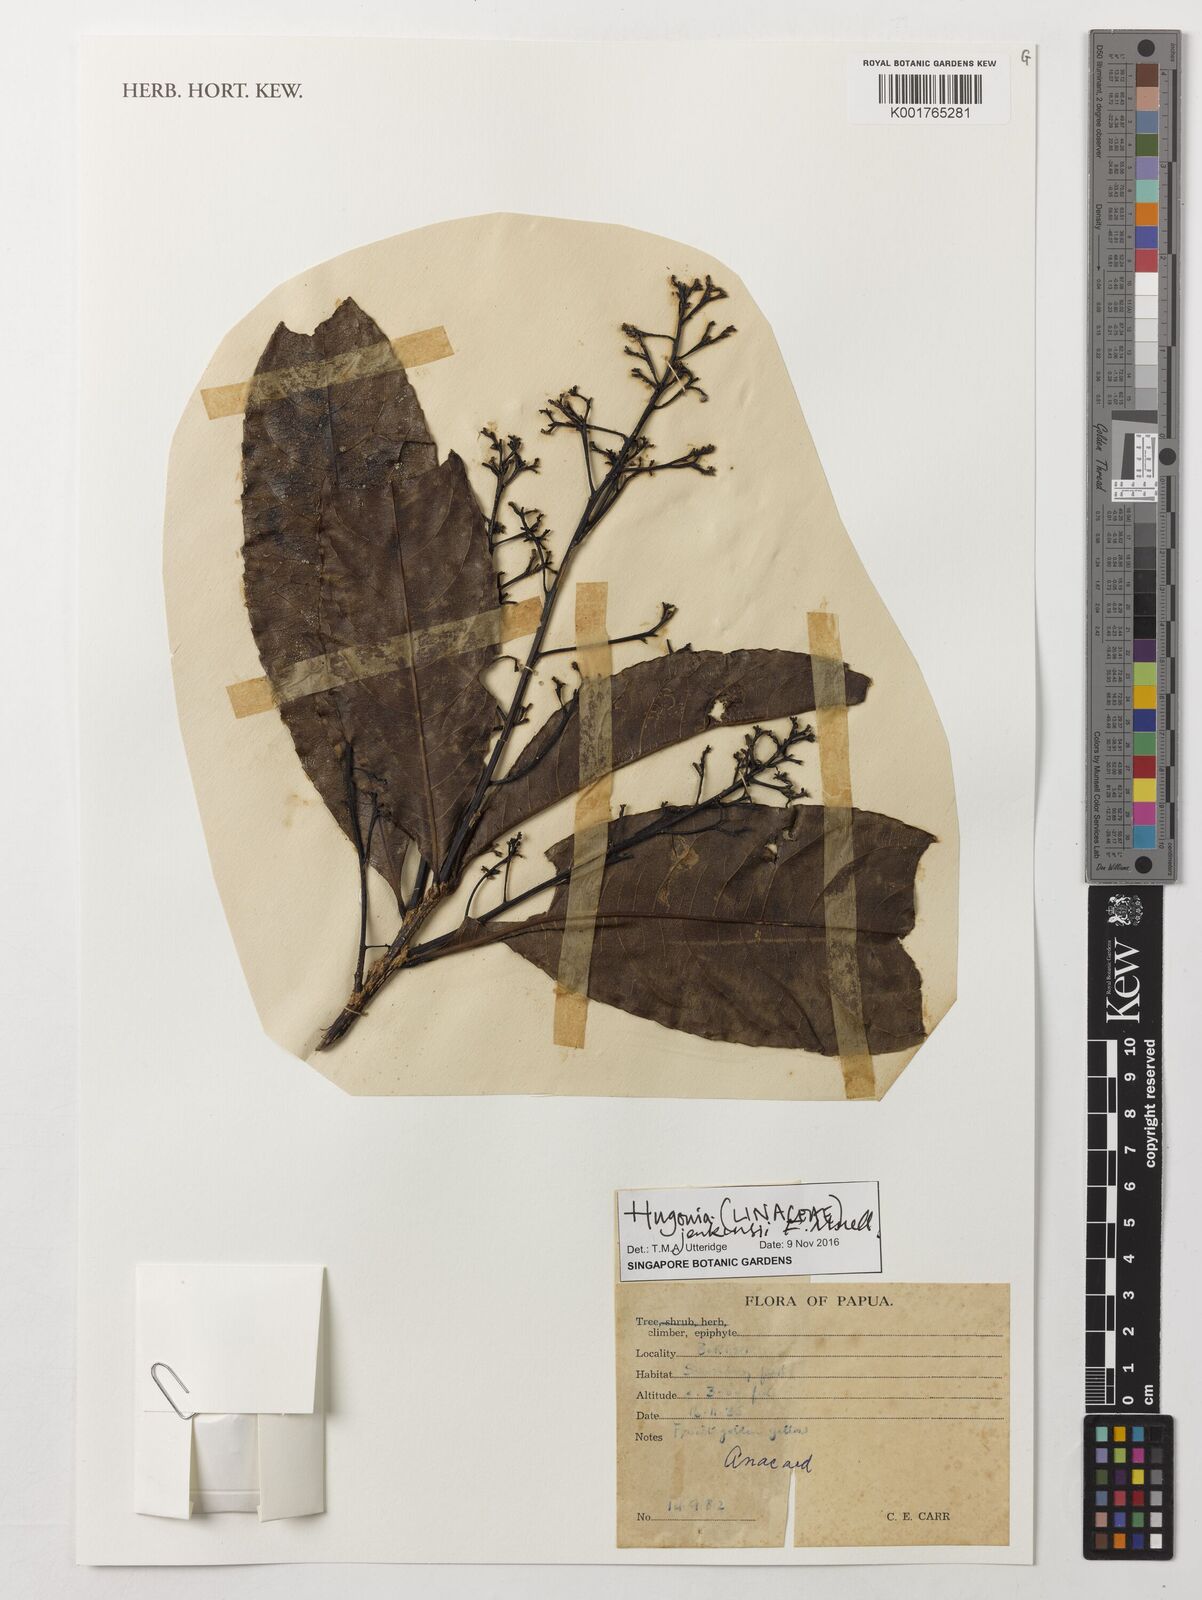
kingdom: Plantae
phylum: Tracheophyta
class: Magnoliopsida
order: Malpighiales
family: Linaceae
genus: Durandea
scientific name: Durandea jenkinsii
